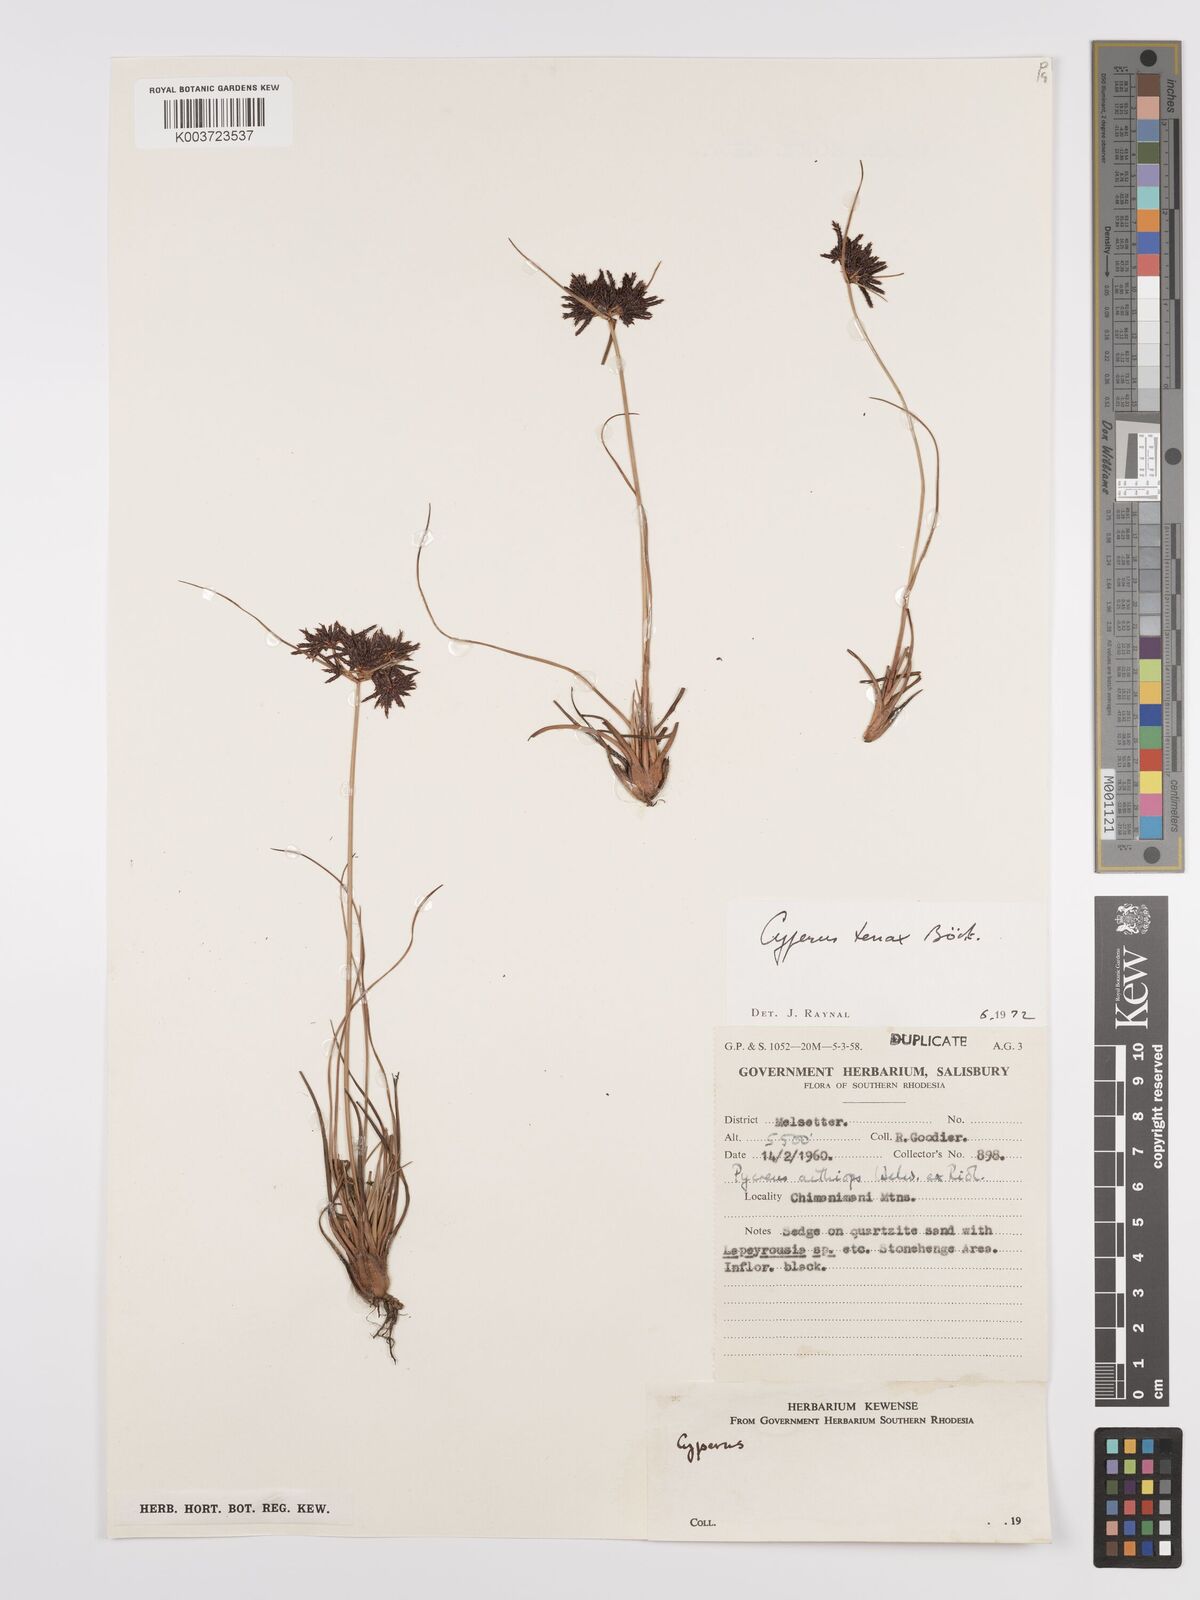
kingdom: Plantae
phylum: Tracheophyta
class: Liliopsida
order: Poales
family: Cyperaceae
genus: Cyperus
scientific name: Cyperus tenax
